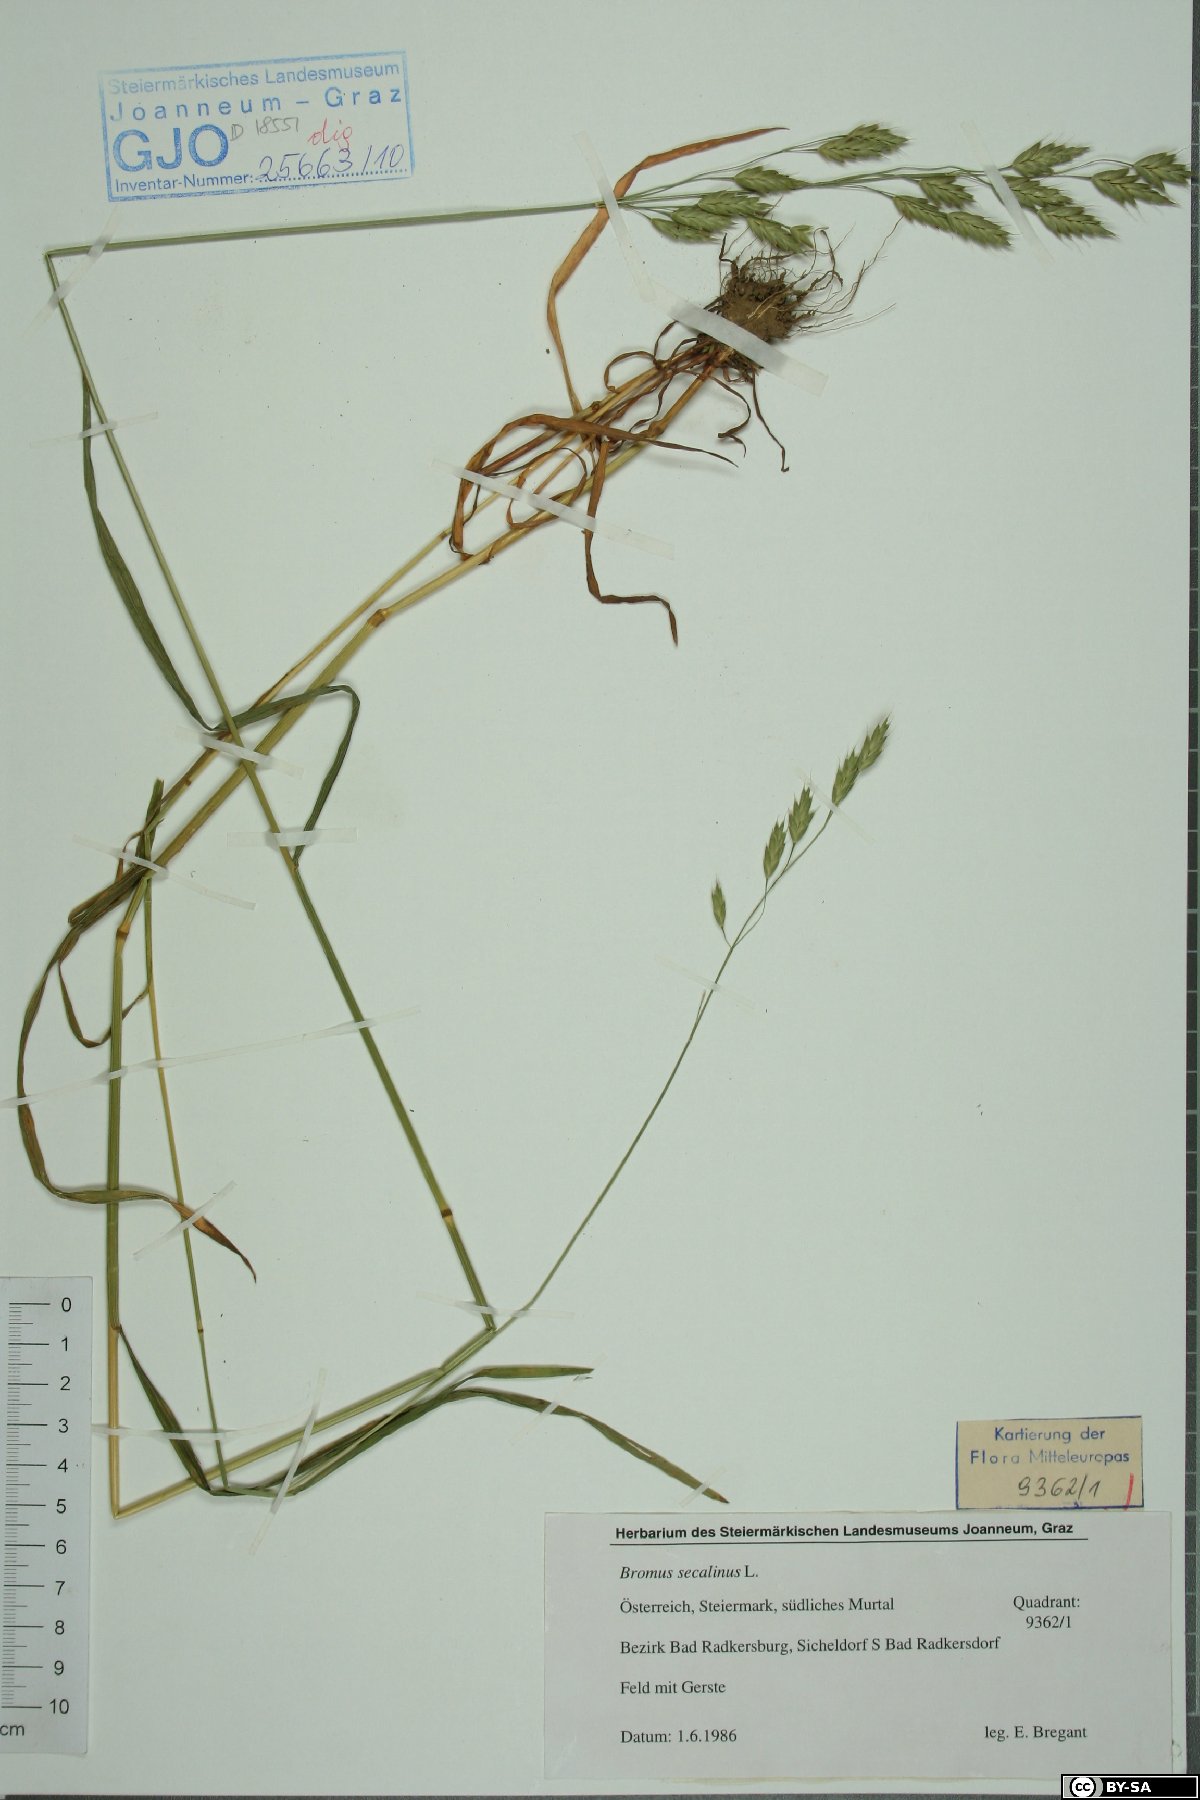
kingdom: Plantae
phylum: Tracheophyta
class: Liliopsida
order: Poales
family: Poaceae
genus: Bromus
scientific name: Bromus secalinus
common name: Rye brome
